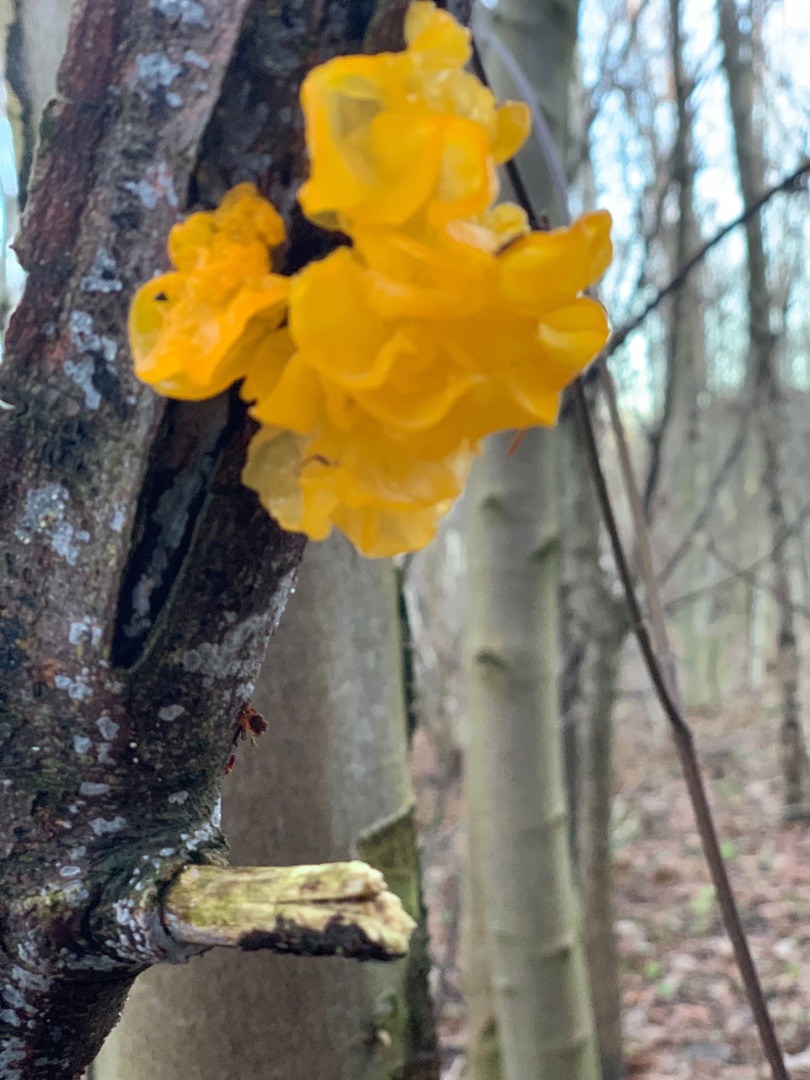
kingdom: Fungi
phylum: Basidiomycota
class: Tremellomycetes
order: Tremellales
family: Tremellaceae
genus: Tremella
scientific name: Tremella mesenterica
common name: Gul bævresvamp
